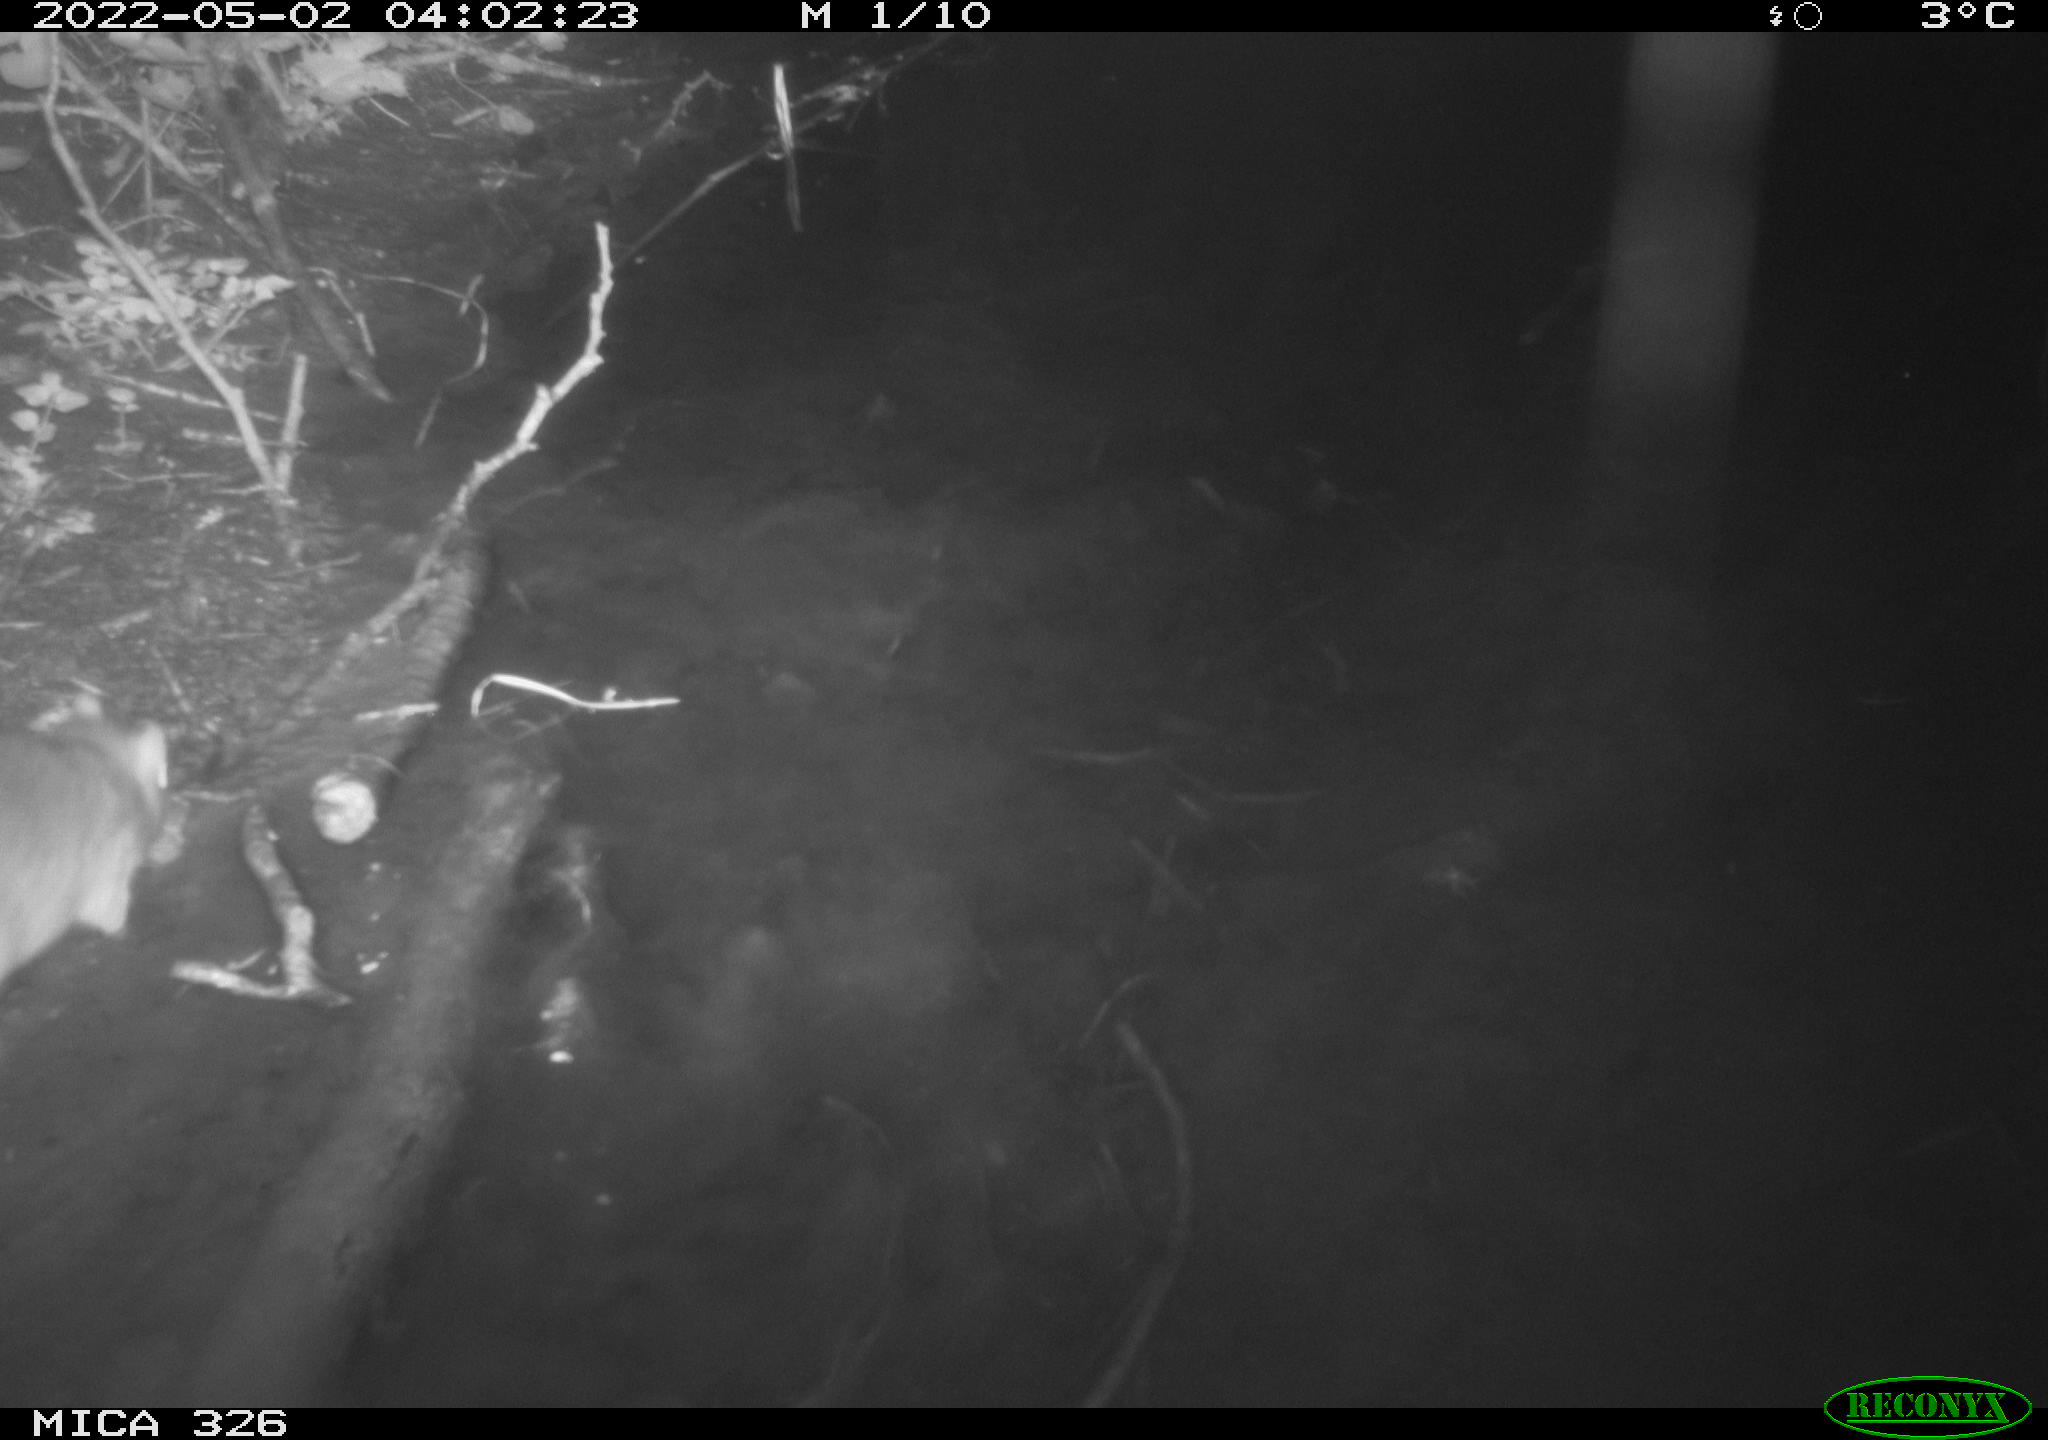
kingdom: Animalia
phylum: Chordata
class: Mammalia
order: Rodentia
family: Muridae
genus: Rattus
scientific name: Rattus norvegicus
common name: Brown rat
